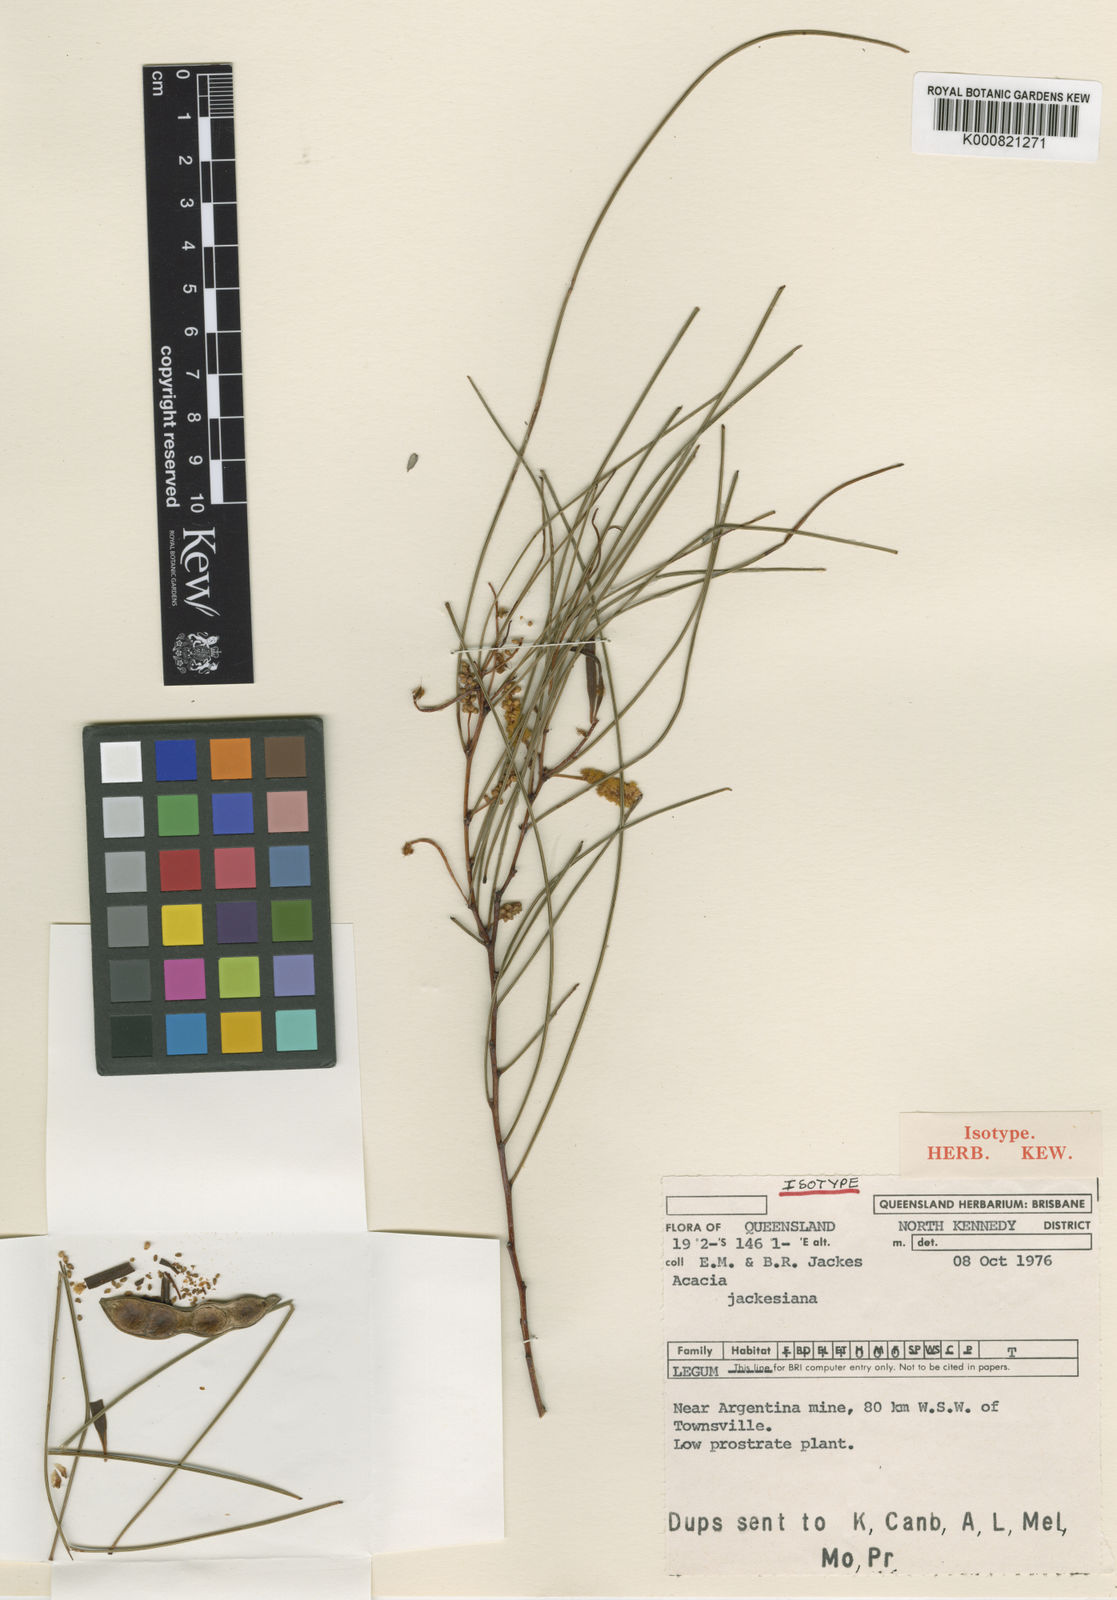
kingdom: Plantae
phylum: Tracheophyta
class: Magnoliopsida
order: Fabales
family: Fabaceae
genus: Acacia
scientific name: Acacia jackesiana
